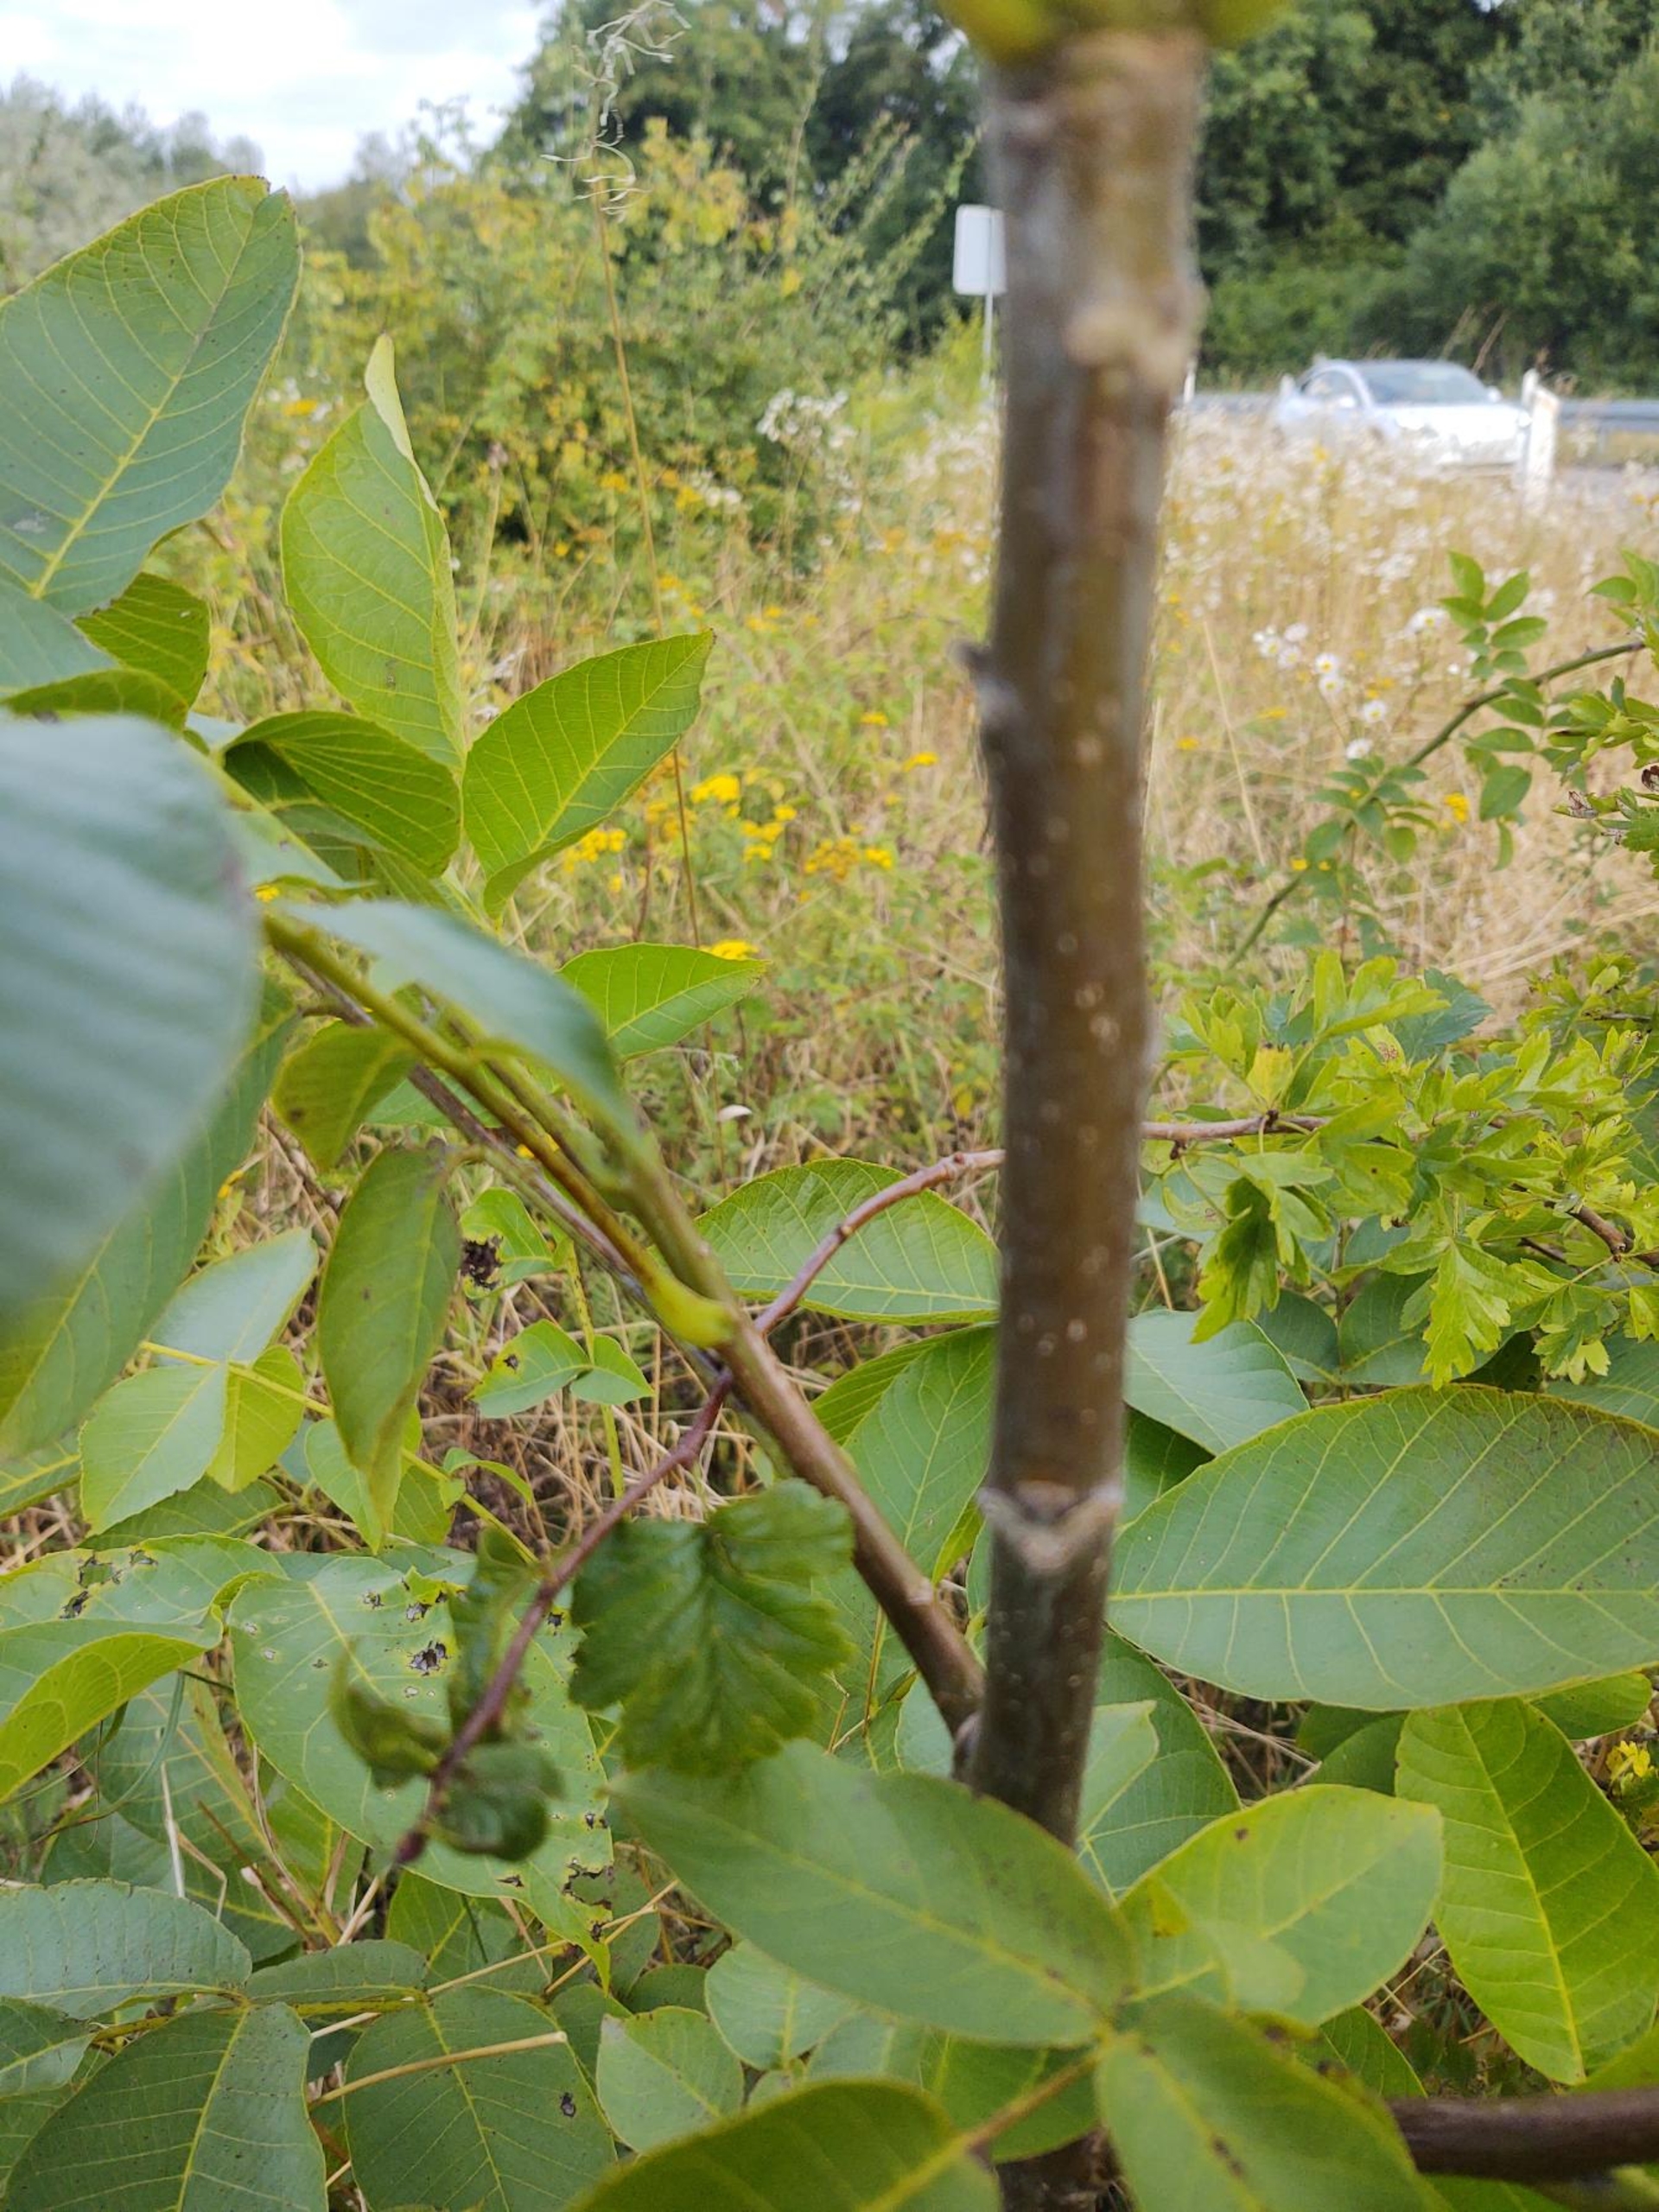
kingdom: Plantae
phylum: Tracheophyta
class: Magnoliopsida
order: Fagales
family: Juglandaceae
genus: Juglans
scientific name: Juglans regia
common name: Almindelig valnød
